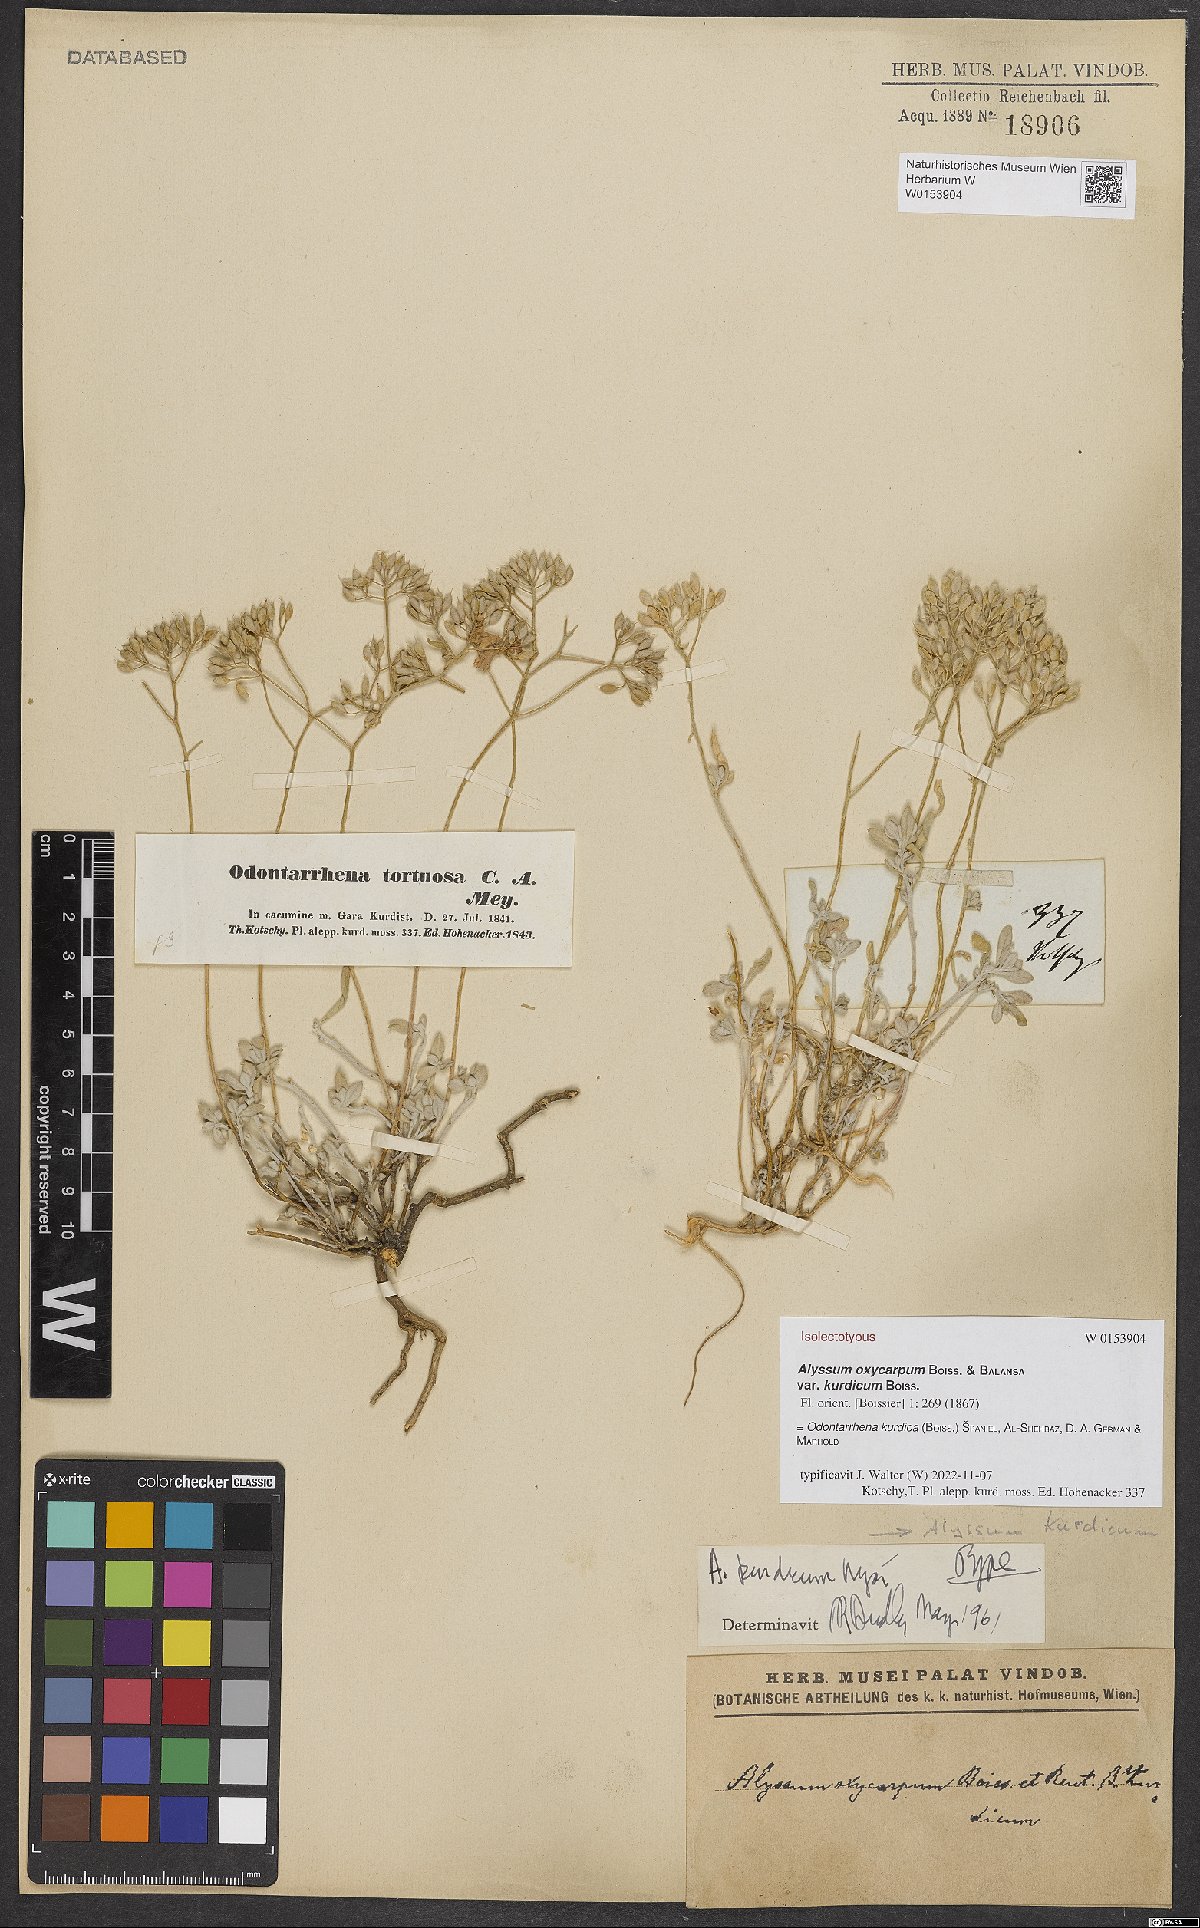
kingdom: Plantae
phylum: Tracheophyta
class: Magnoliopsida
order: Brassicales
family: Brassicaceae
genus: Odontarrhena
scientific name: Odontarrhena kurdica
